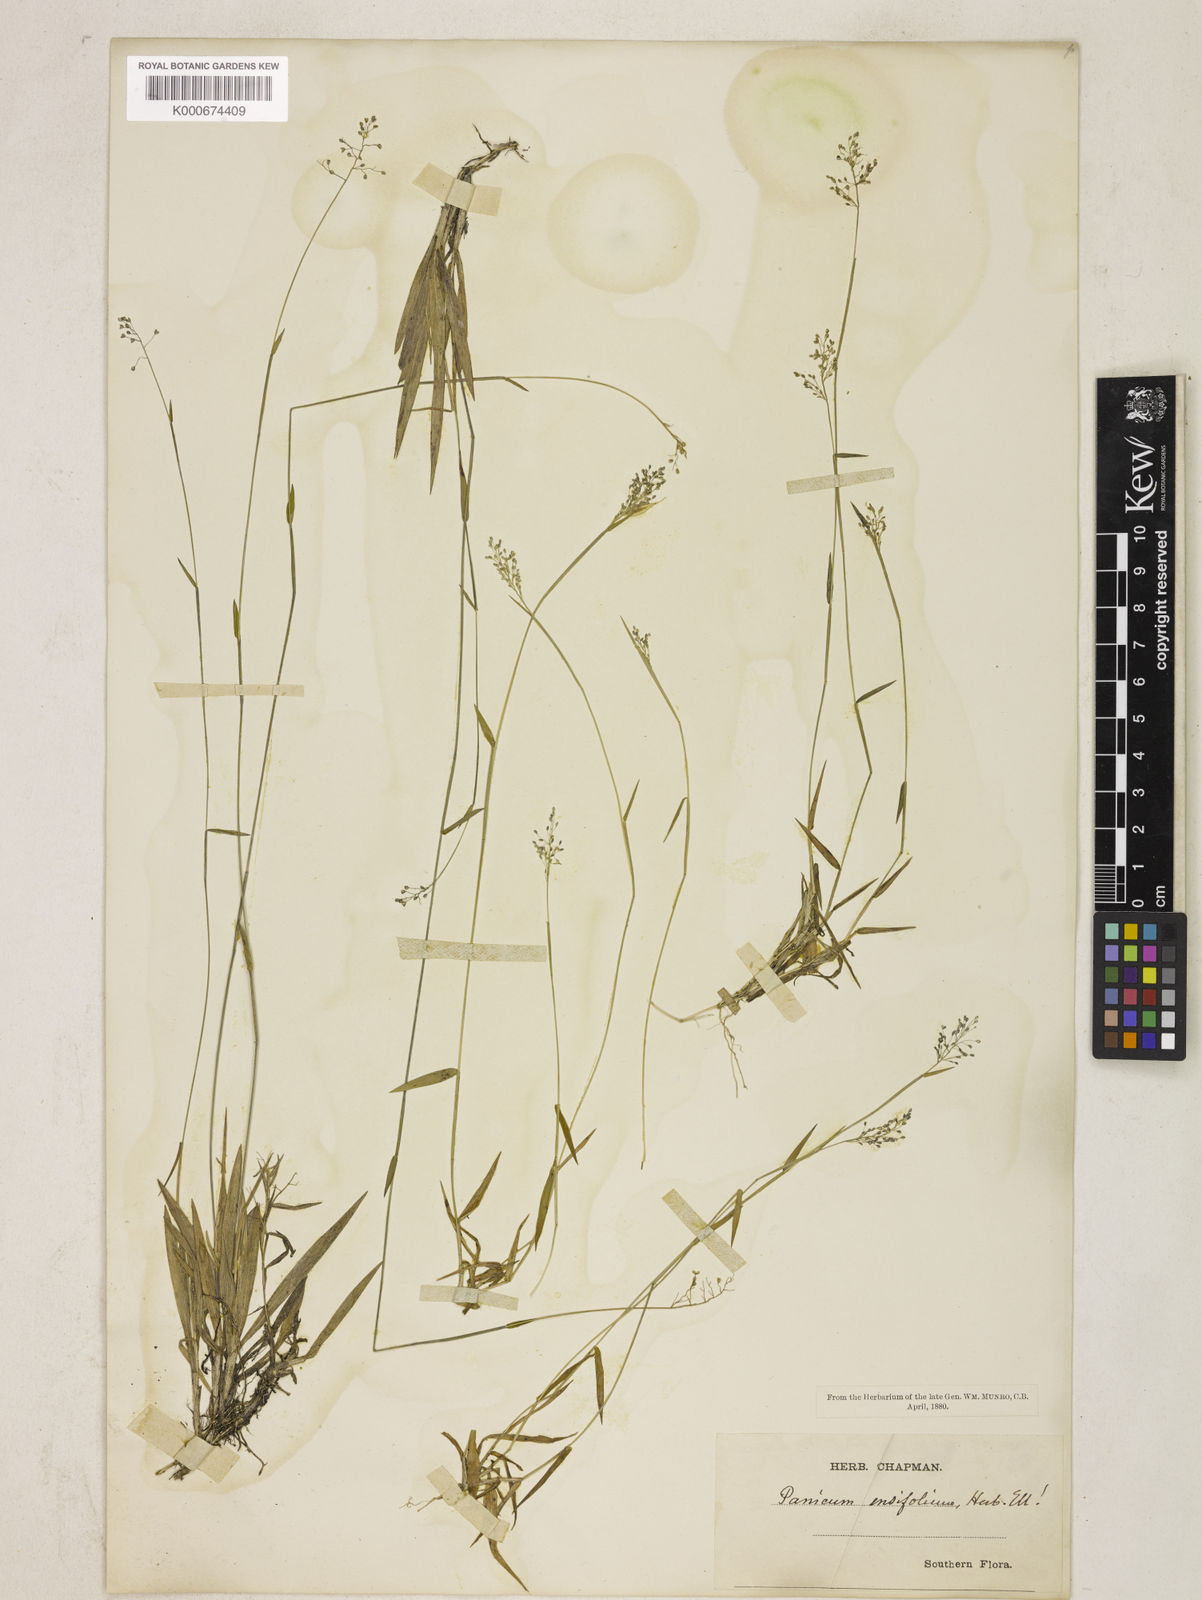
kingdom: Plantae
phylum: Tracheophyta
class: Liliopsida
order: Poales
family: Poaceae
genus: Dichanthelium
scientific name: Dichanthelium ensifolium
